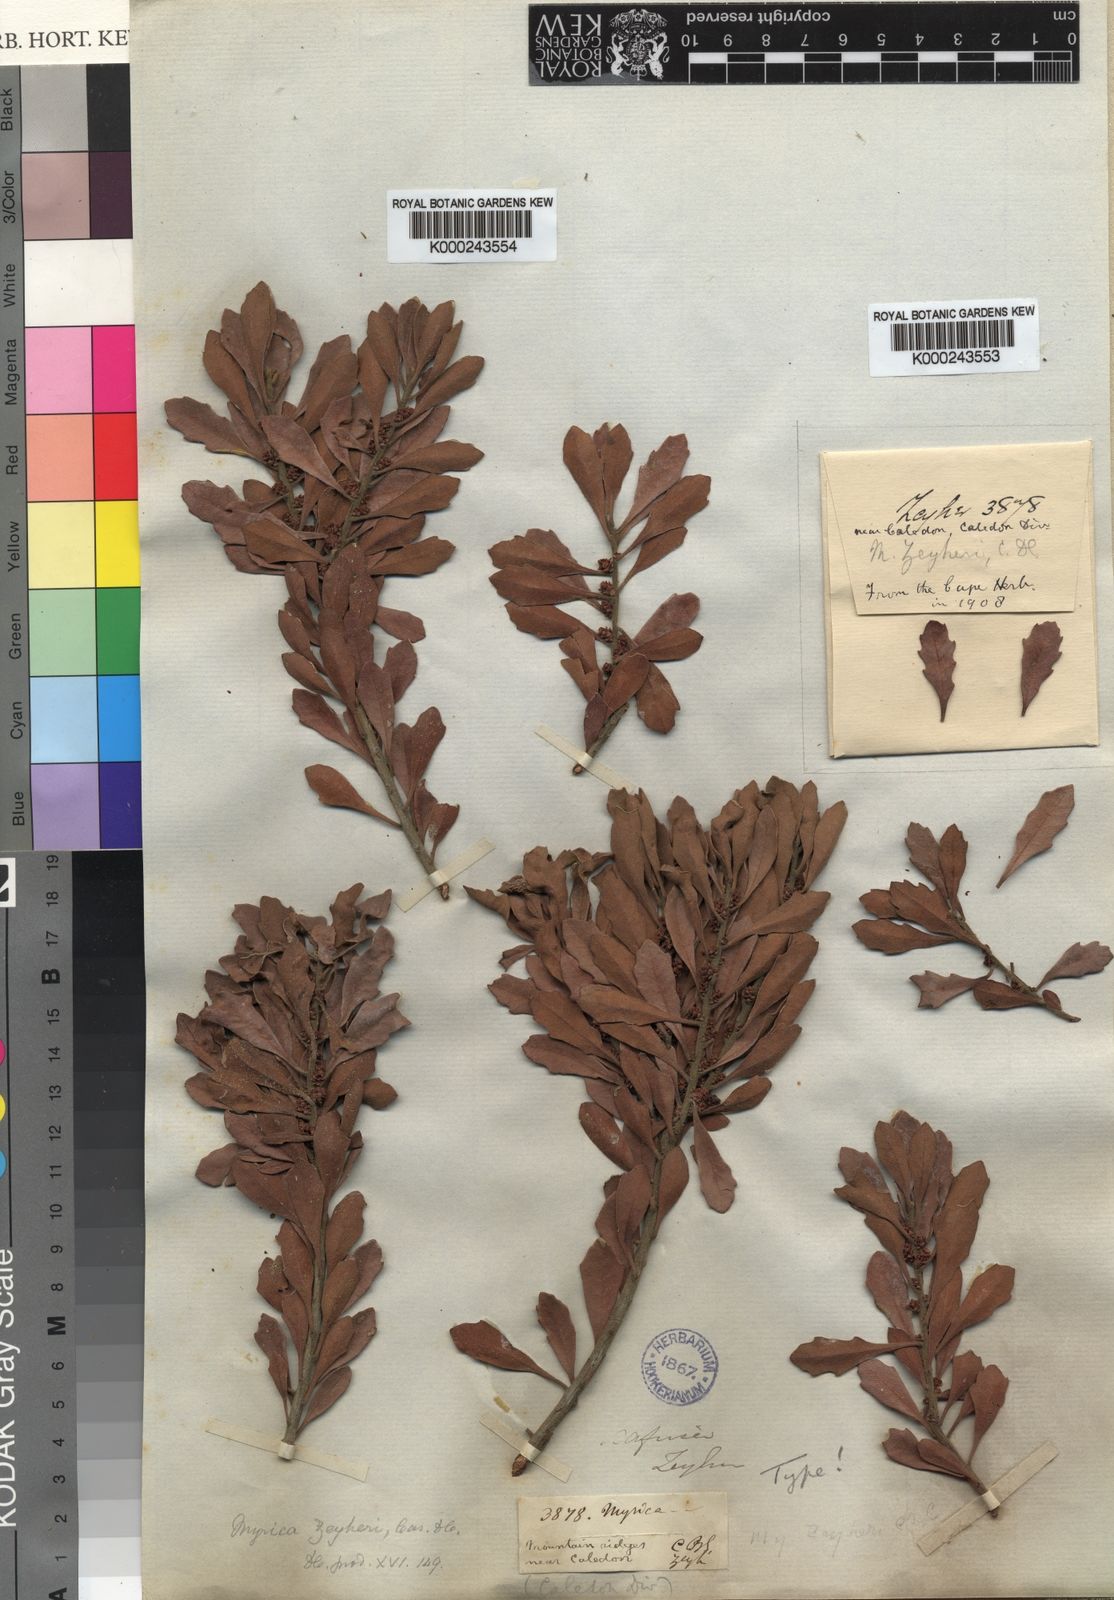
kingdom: Plantae
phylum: Tracheophyta
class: Magnoliopsida
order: Fagales
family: Myricaceae
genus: Morella
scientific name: Morella quercifolia
